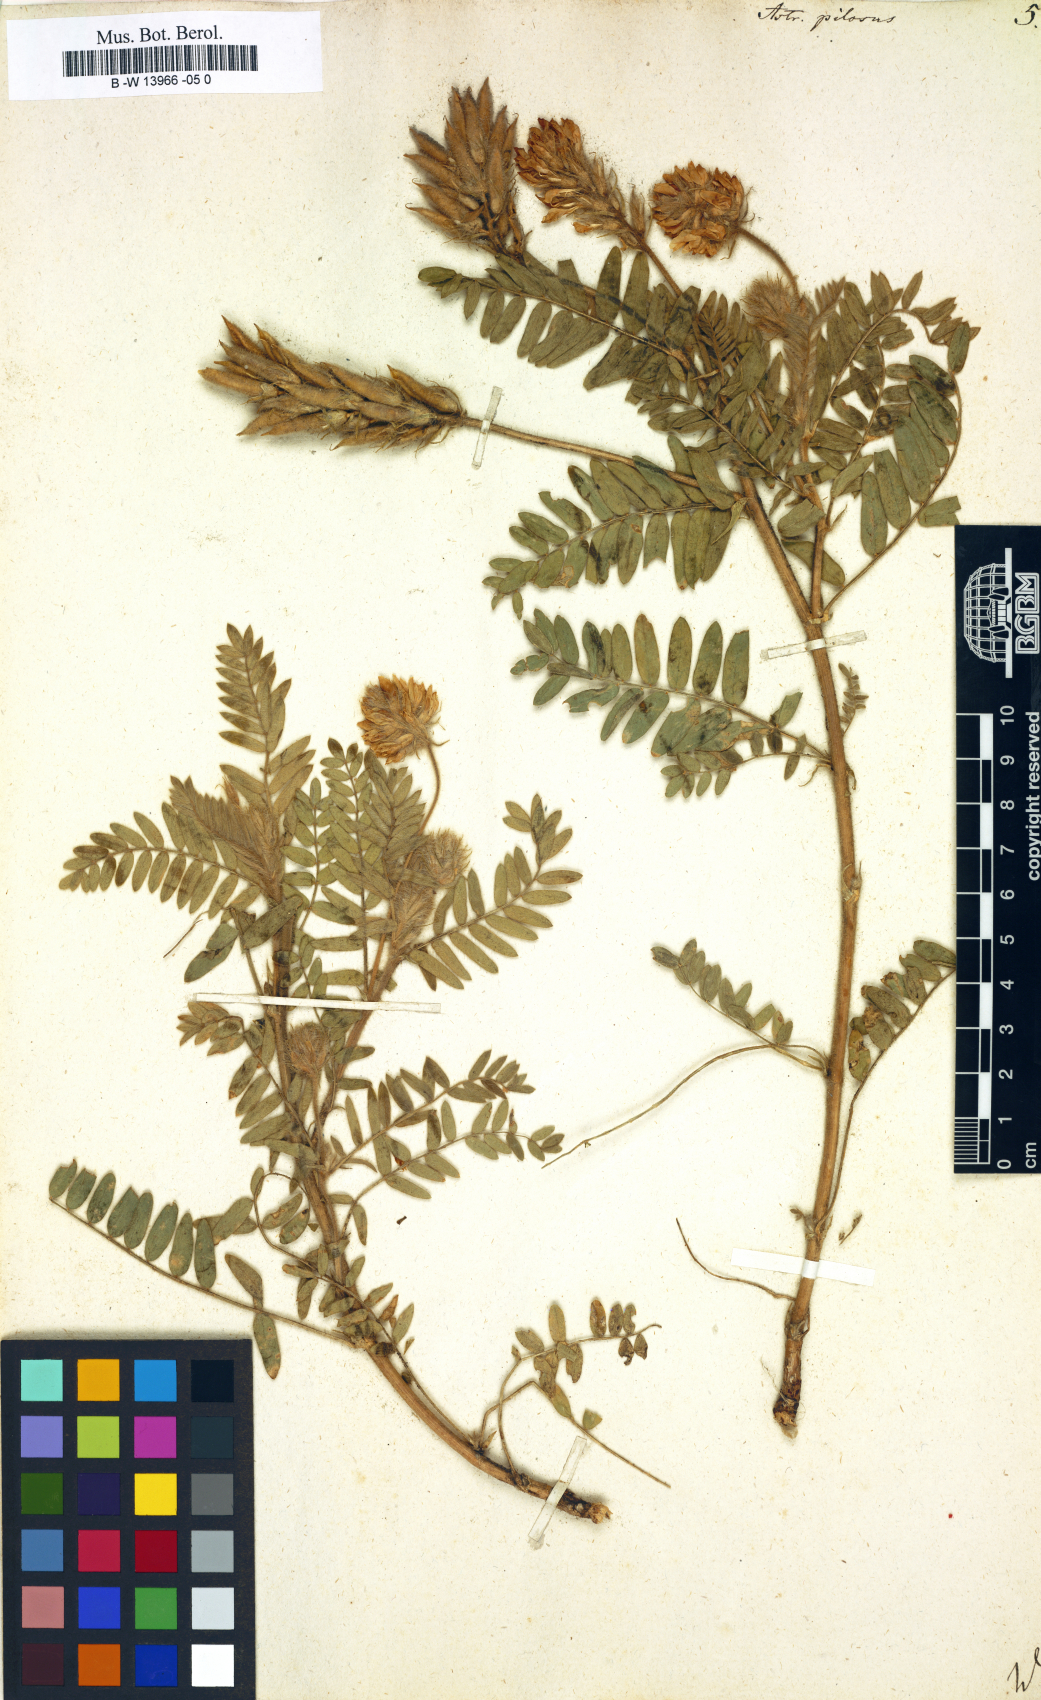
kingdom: Plantae
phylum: Tracheophyta
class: Magnoliopsida
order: Fabales
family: Fabaceae
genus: Oxytropis
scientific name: Oxytropis pilosa
